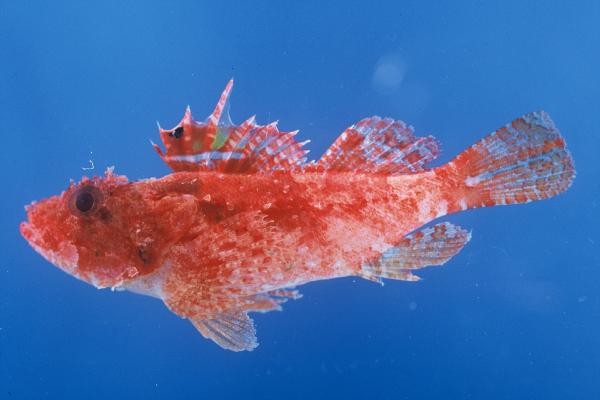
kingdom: Animalia
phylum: Chordata
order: Scorpaeniformes
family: Scorpaenidae
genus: Iracundus
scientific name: Iracundus signifer
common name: Decoy scorpionfish
